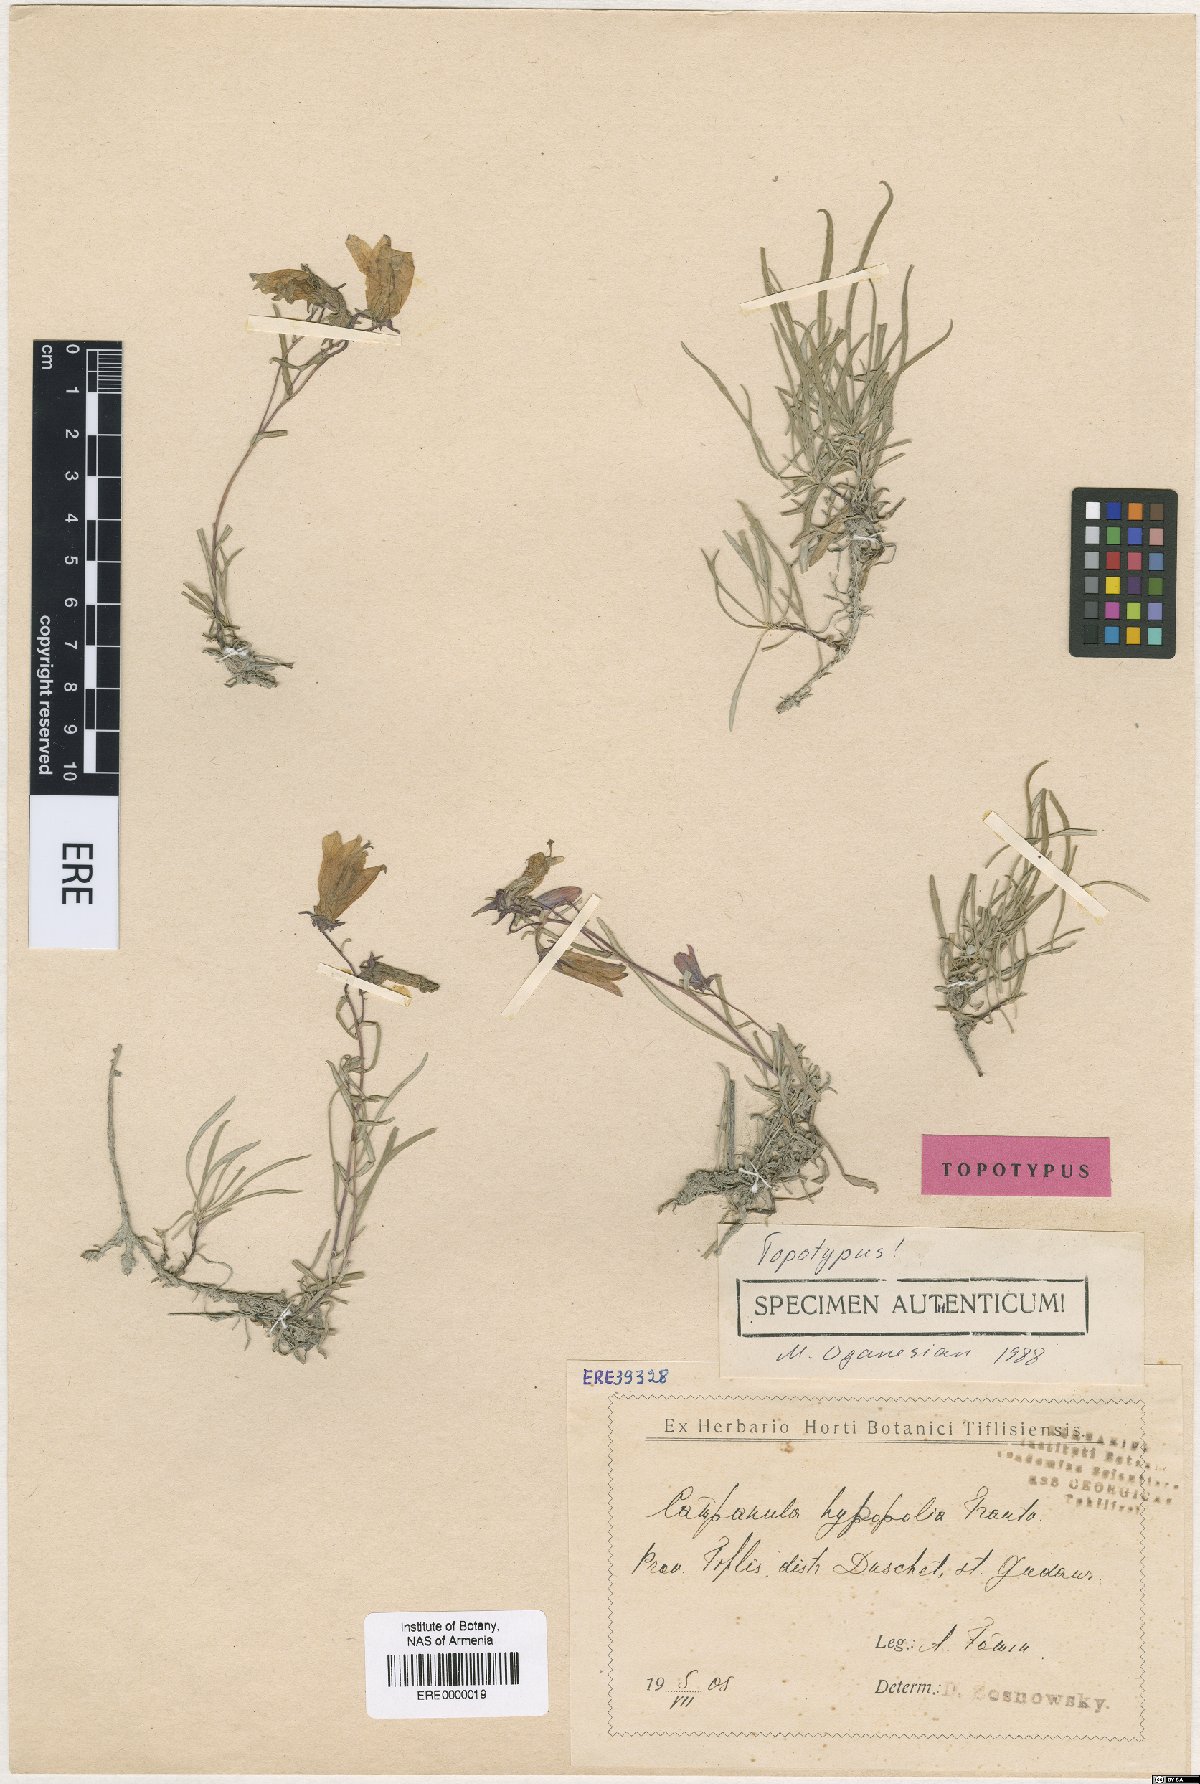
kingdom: Plantae
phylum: Tracheophyta
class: Magnoliopsida
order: Asterales
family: Campanulaceae
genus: Campanula
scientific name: Campanula hypopolia
